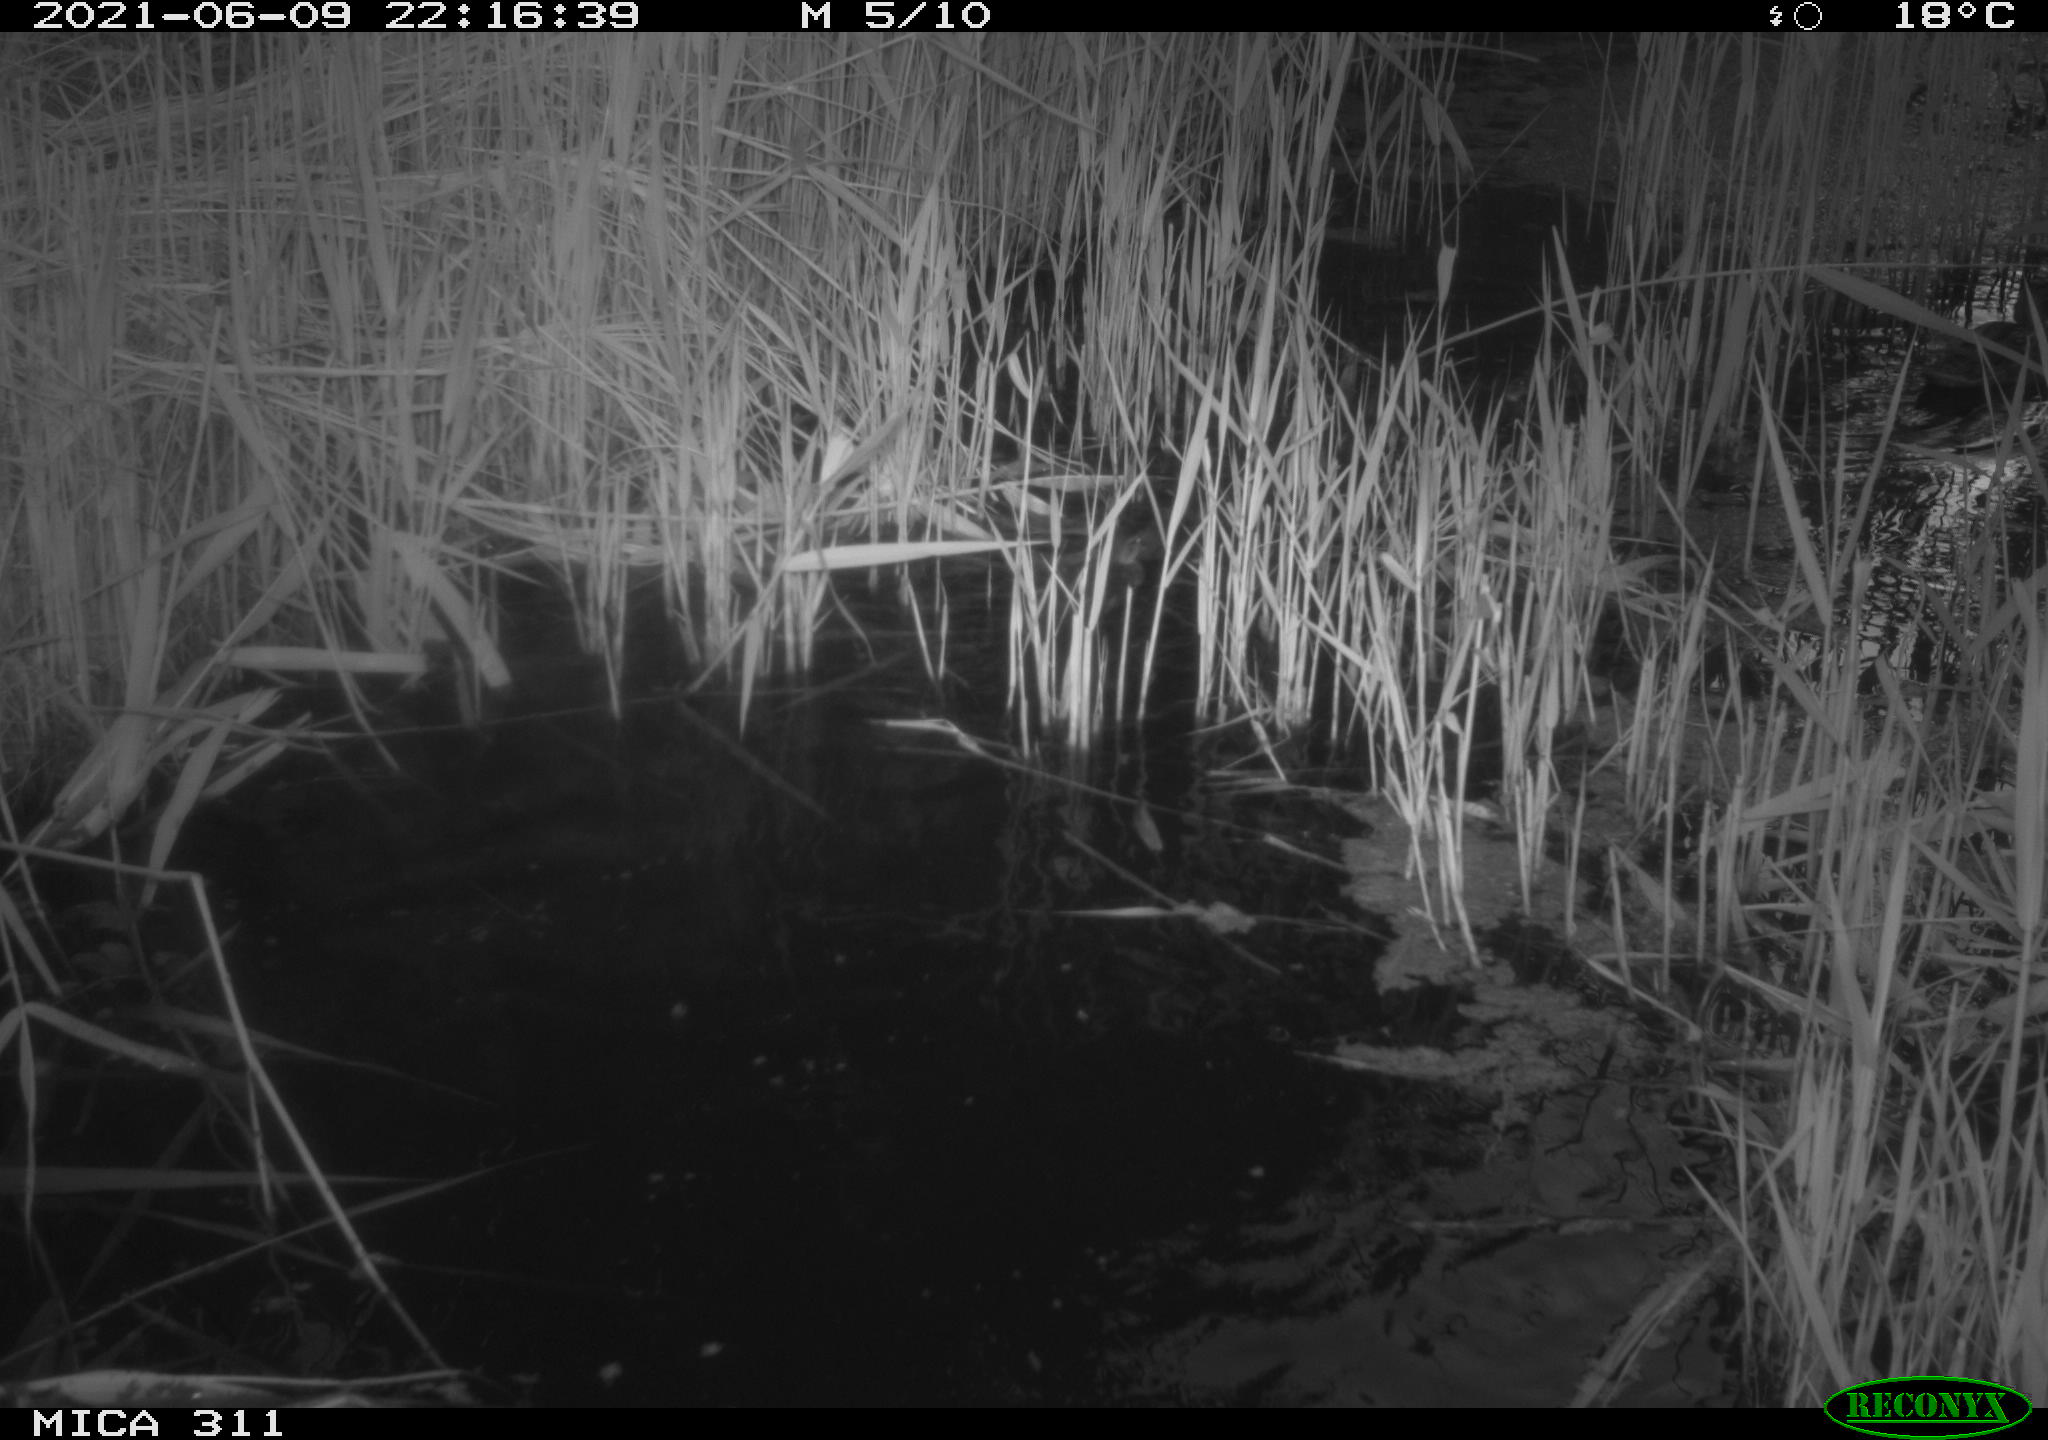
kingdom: Animalia
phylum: Chordata
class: Aves
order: Anseriformes
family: Anatidae
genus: Anas
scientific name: Anas platyrhynchos
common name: Mallard
